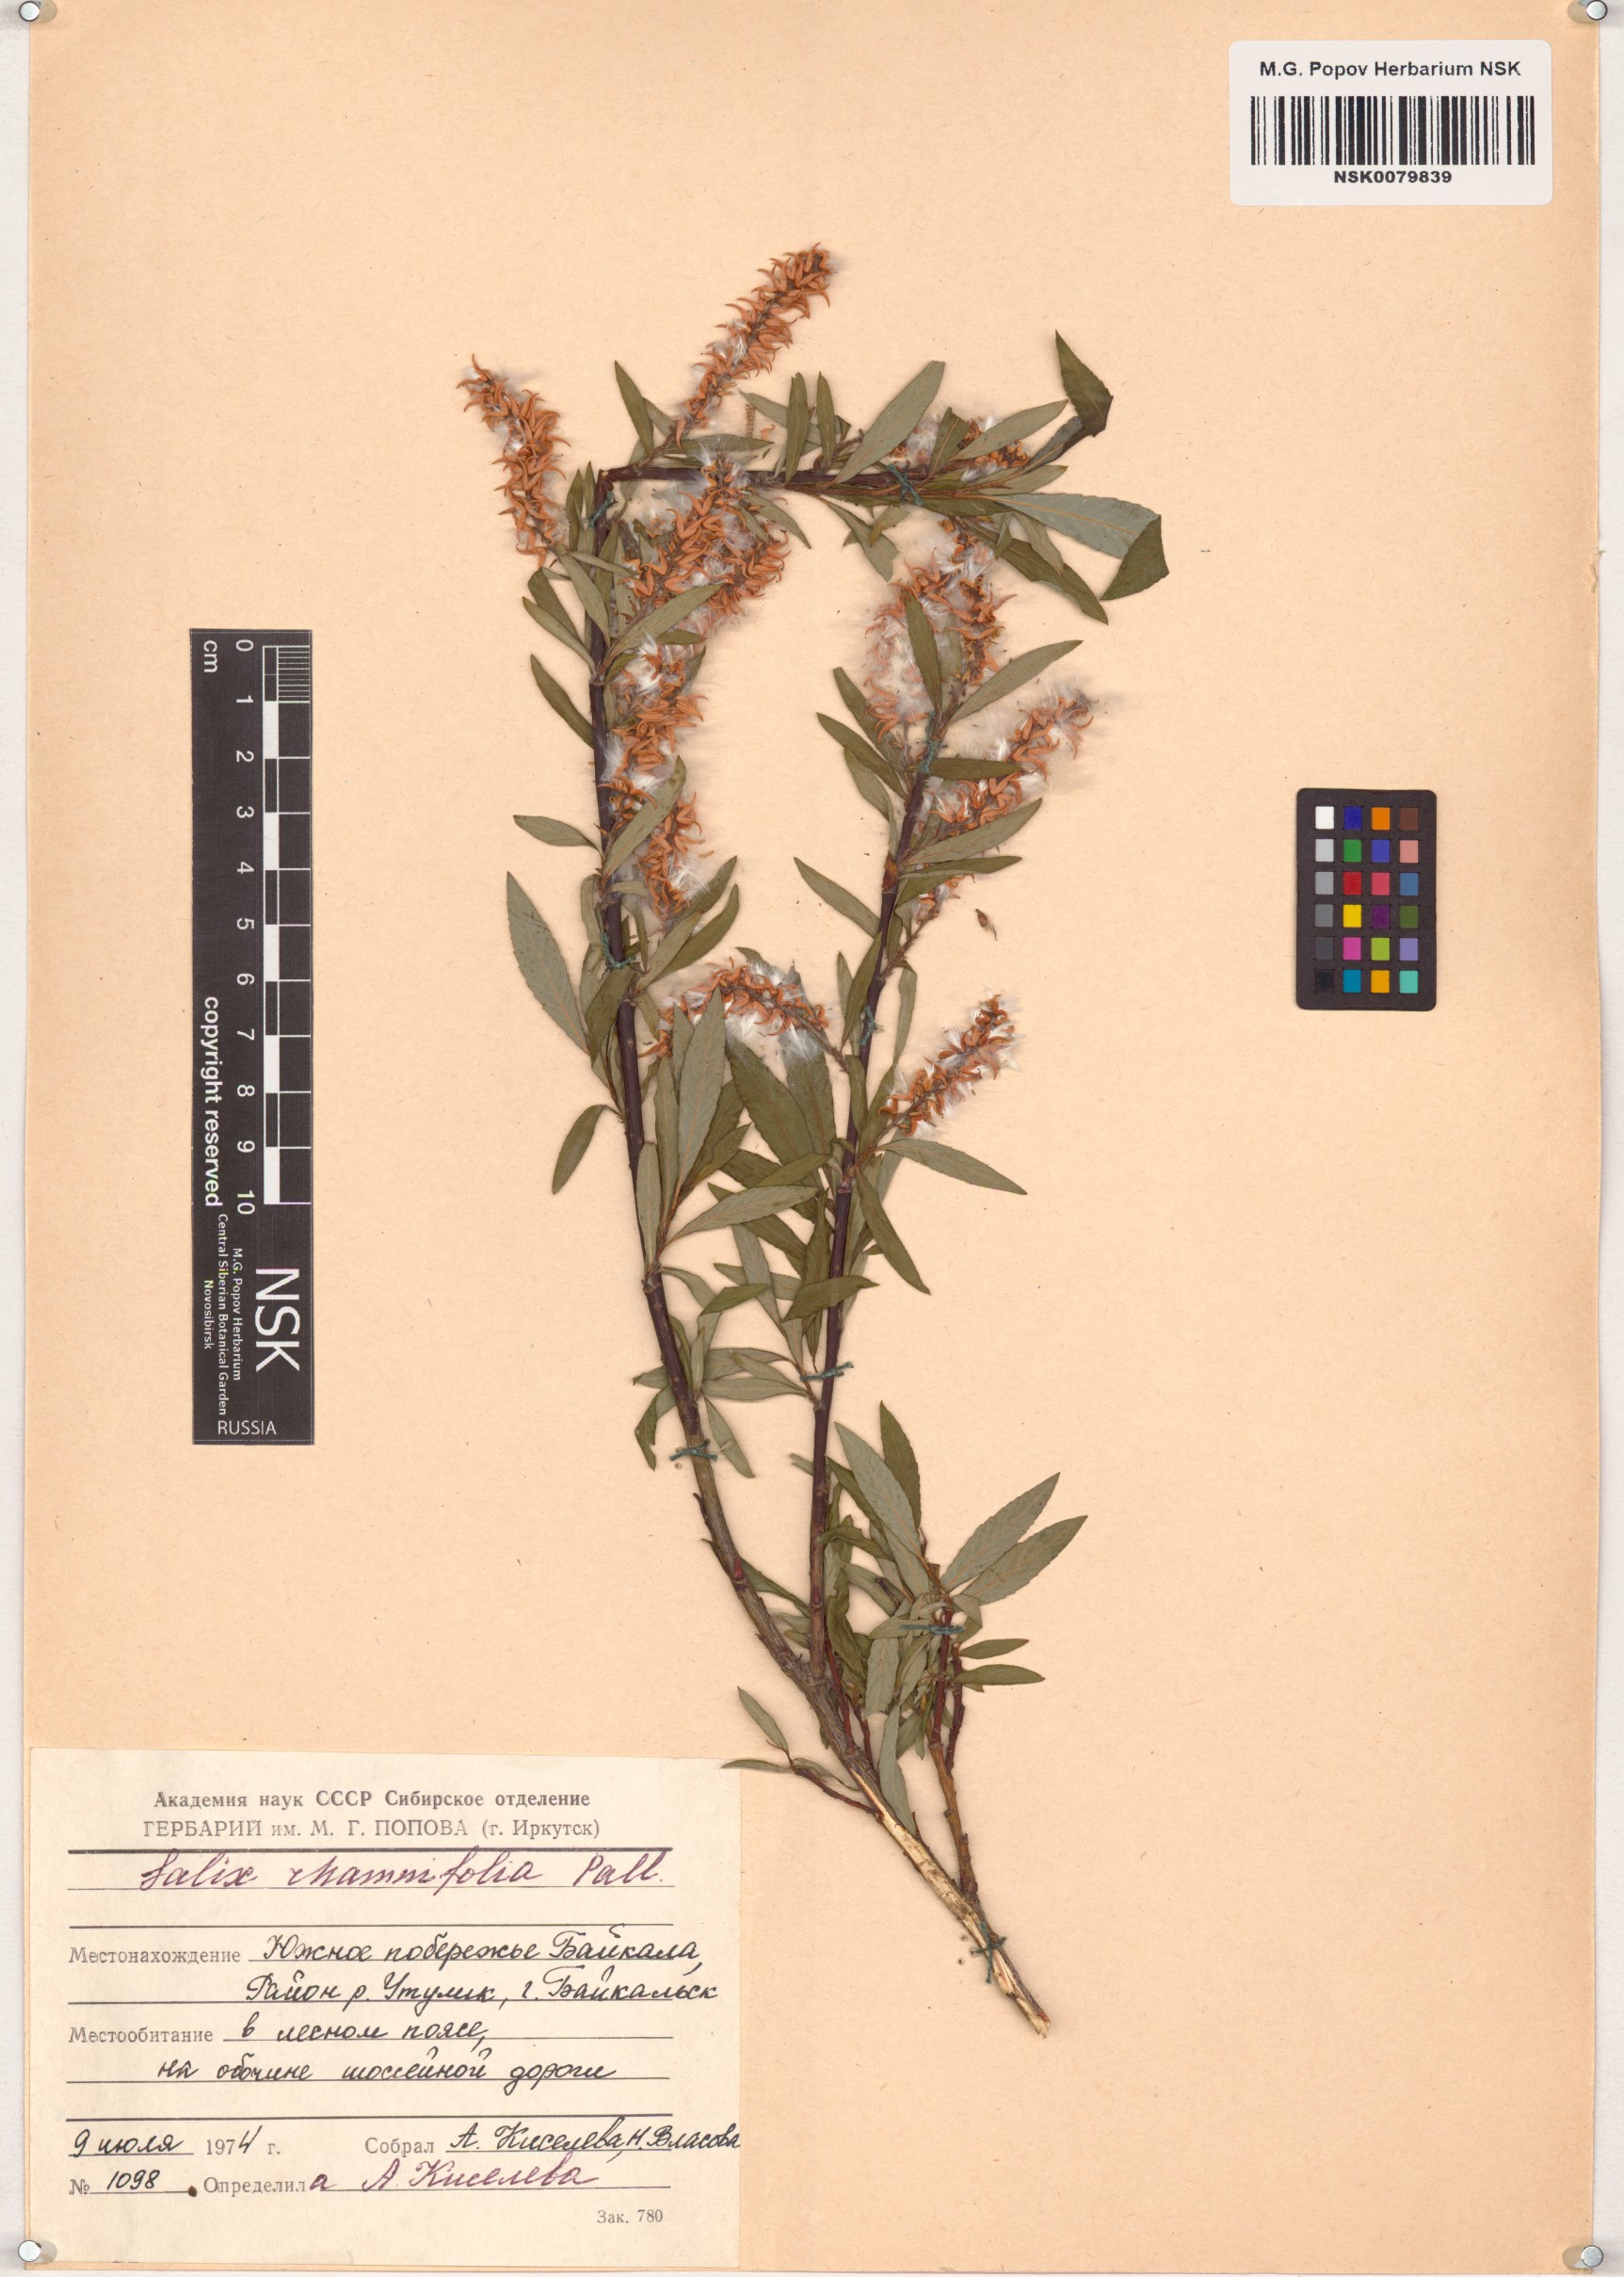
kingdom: Plantae
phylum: Tracheophyta
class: Magnoliopsida
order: Malpighiales
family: Salicaceae
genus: Salix
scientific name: Salix rhamnifolia
